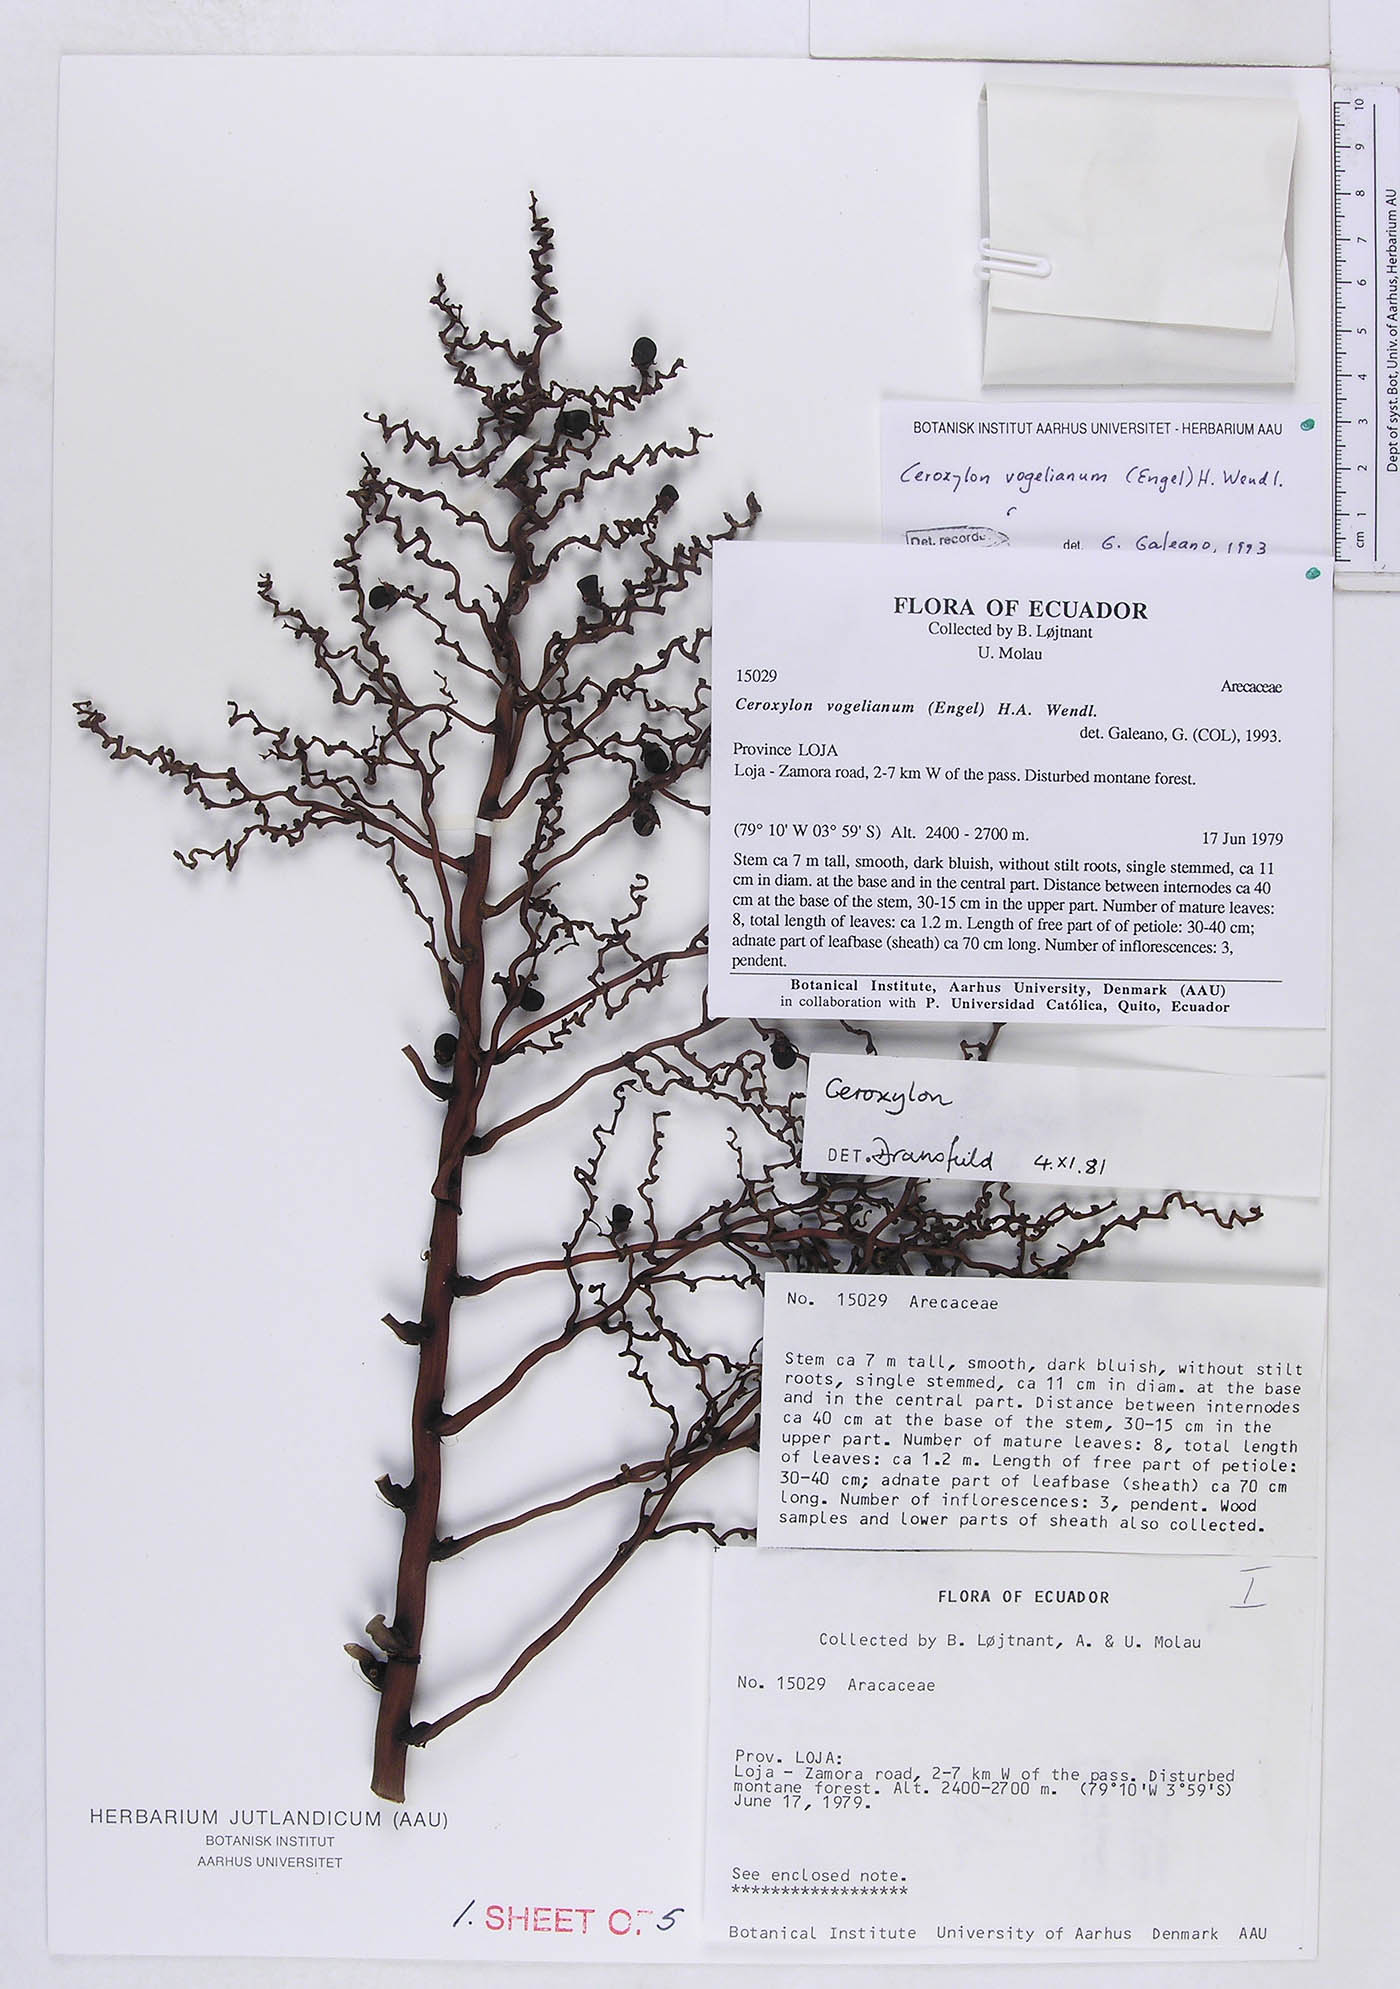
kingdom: Plantae
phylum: Tracheophyta
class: Liliopsida
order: Arecales
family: Arecaceae
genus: Ceroxylon
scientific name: Ceroxylon vogelianum
